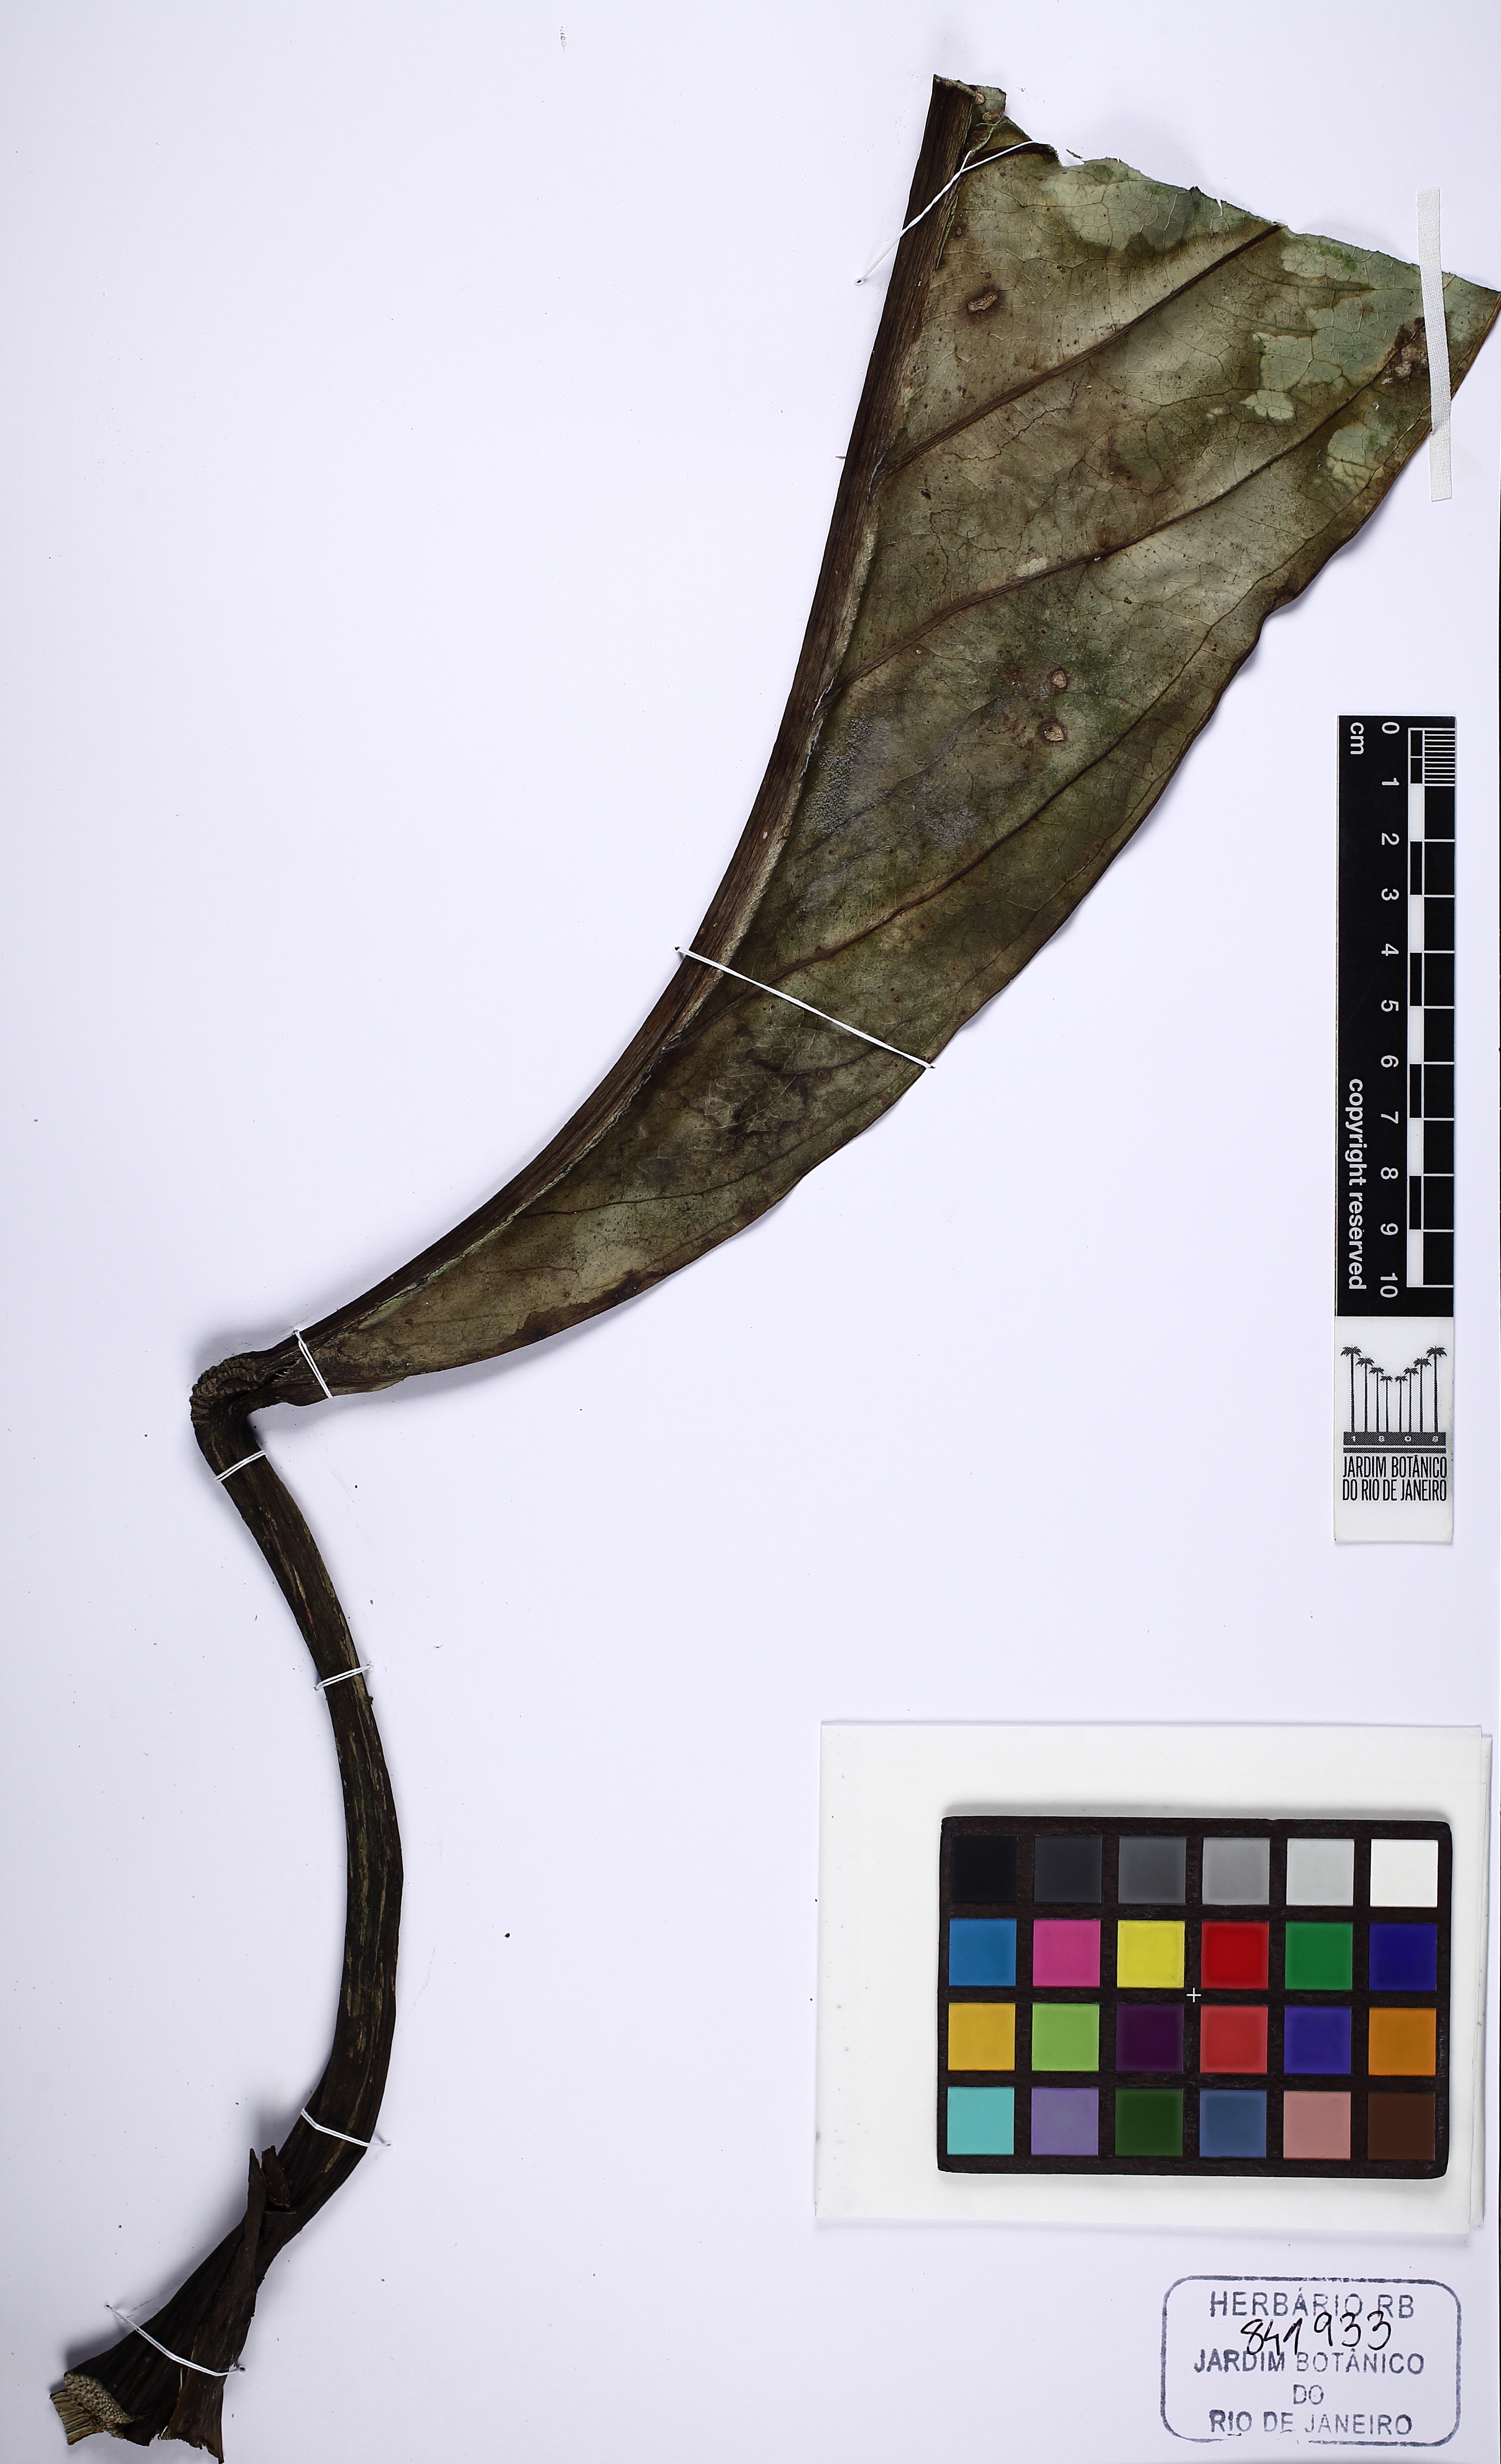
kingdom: Plantae
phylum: Tracheophyta
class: Liliopsida
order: Alismatales
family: Araceae
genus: Anthurium
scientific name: Anthurium solitarium
